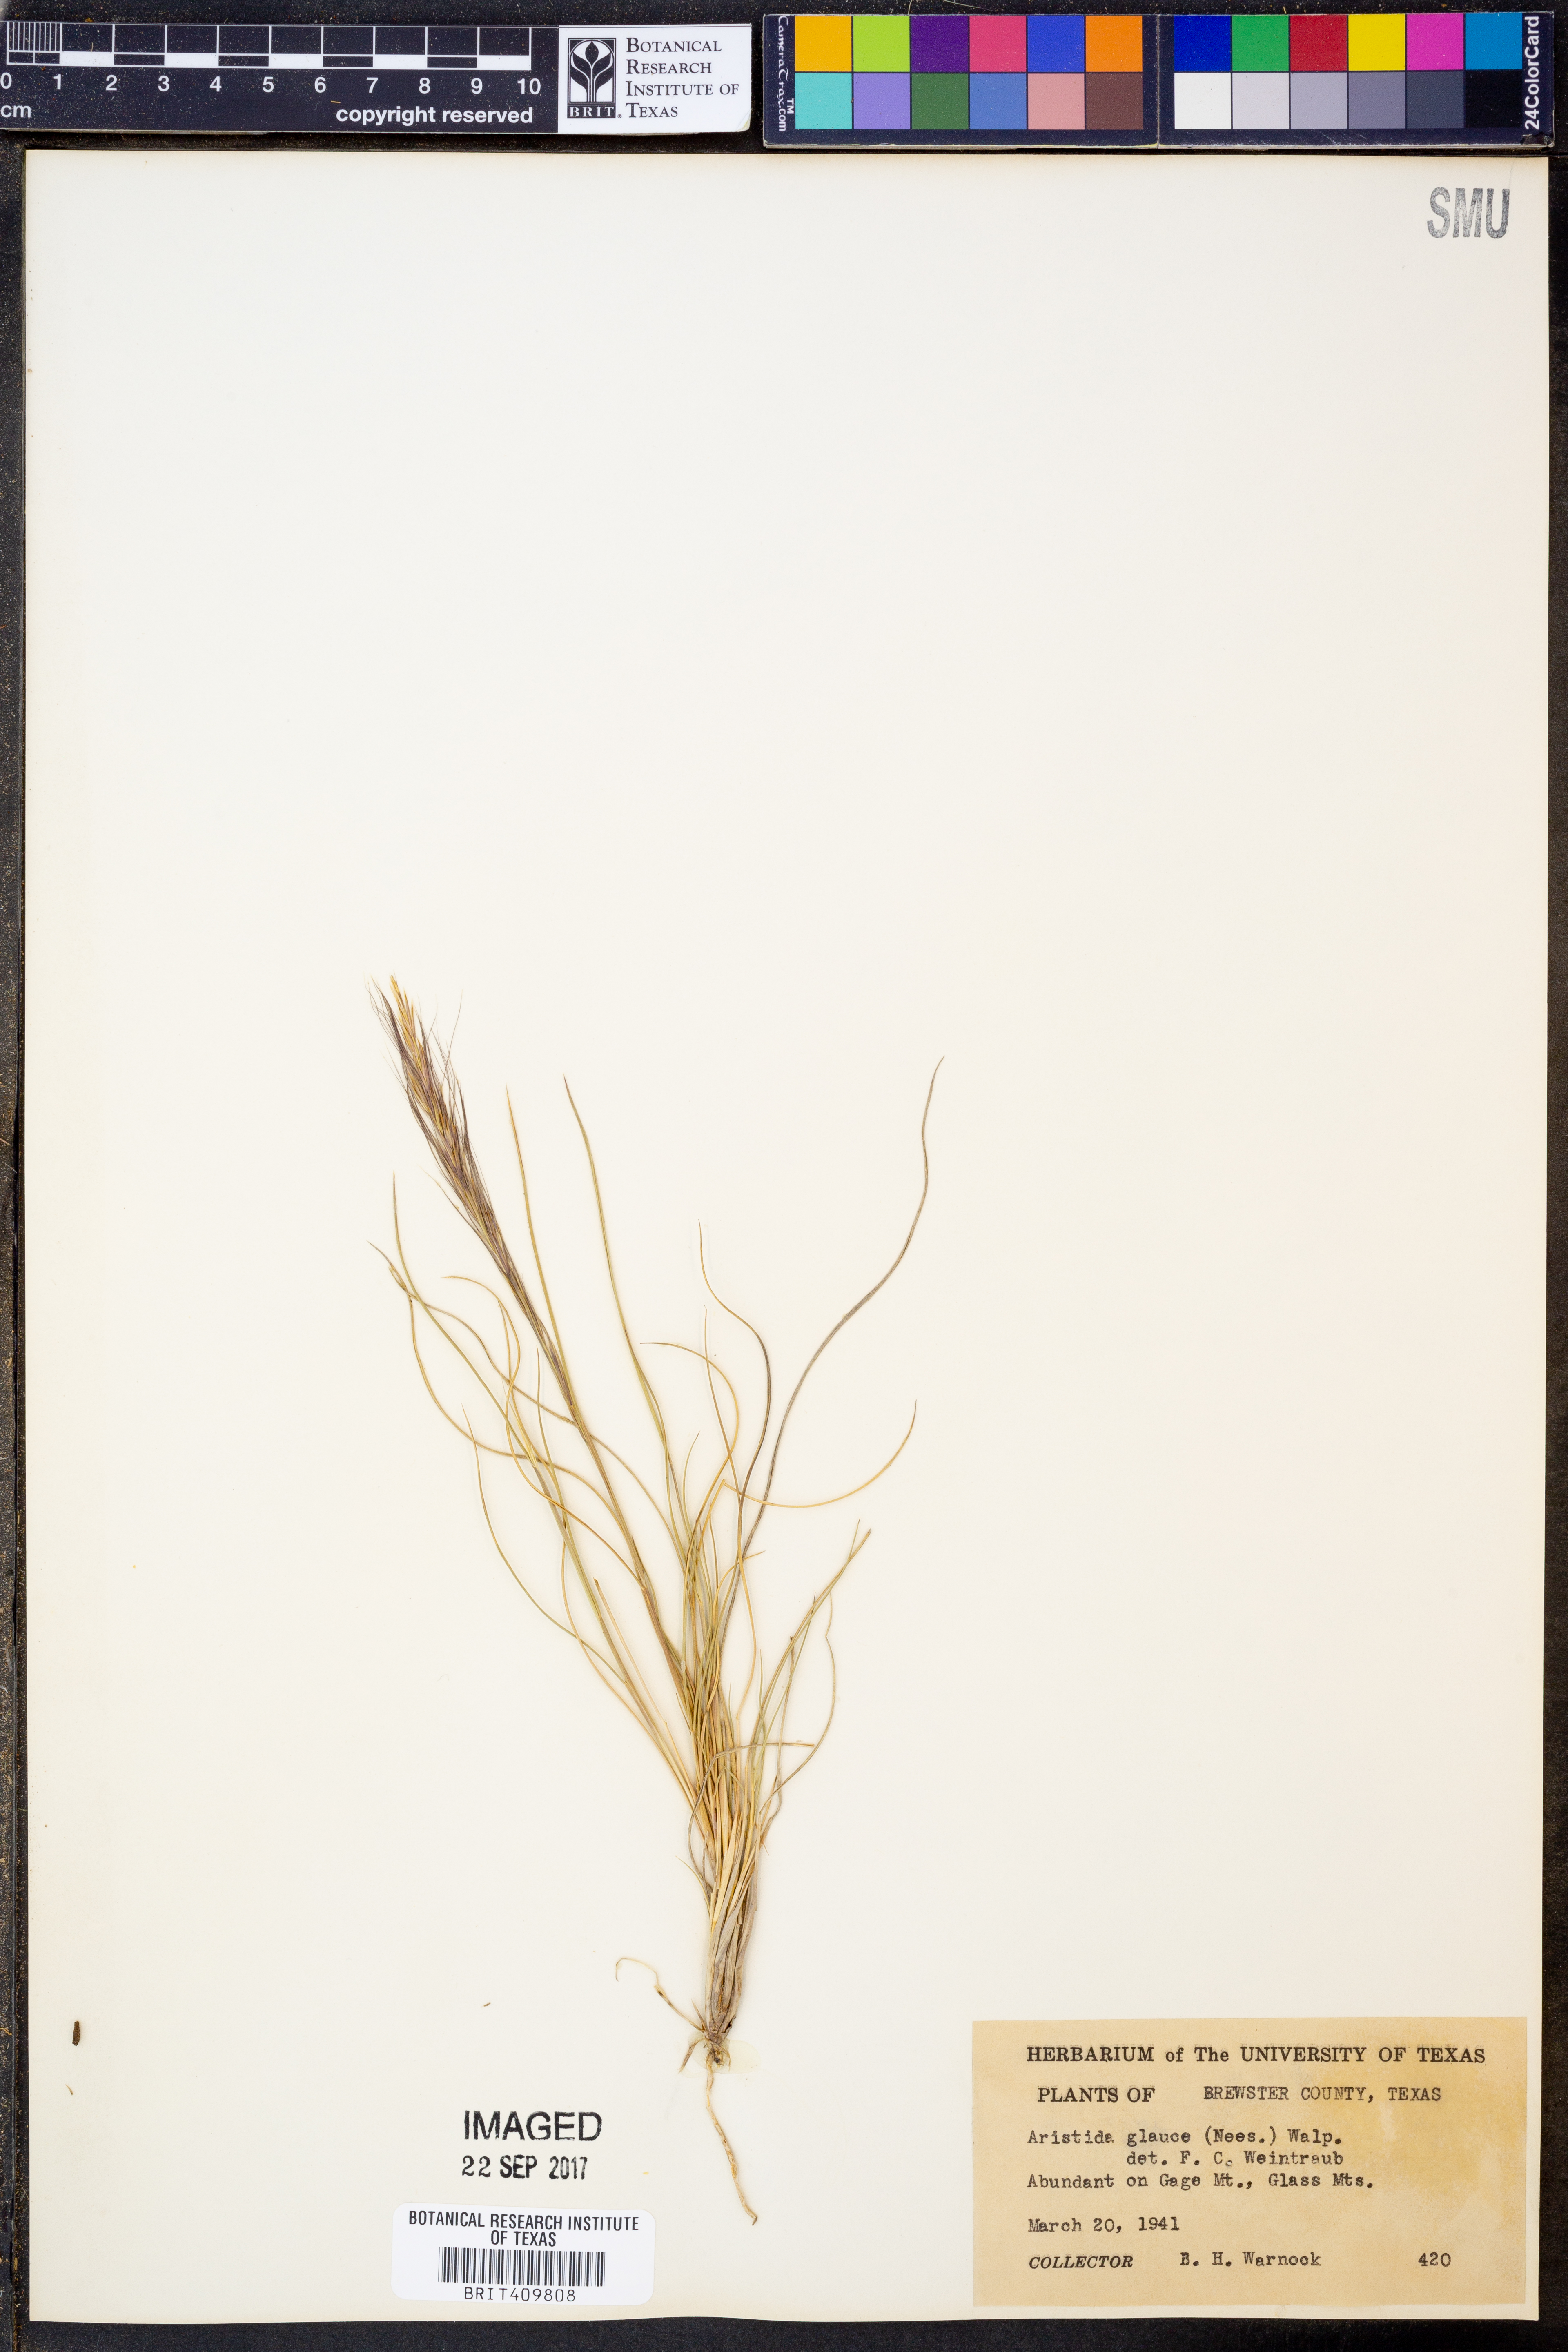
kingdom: Plantae
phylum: Tracheophyta
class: Liliopsida
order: Poales
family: Poaceae
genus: Aristida
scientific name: Aristida glauca
